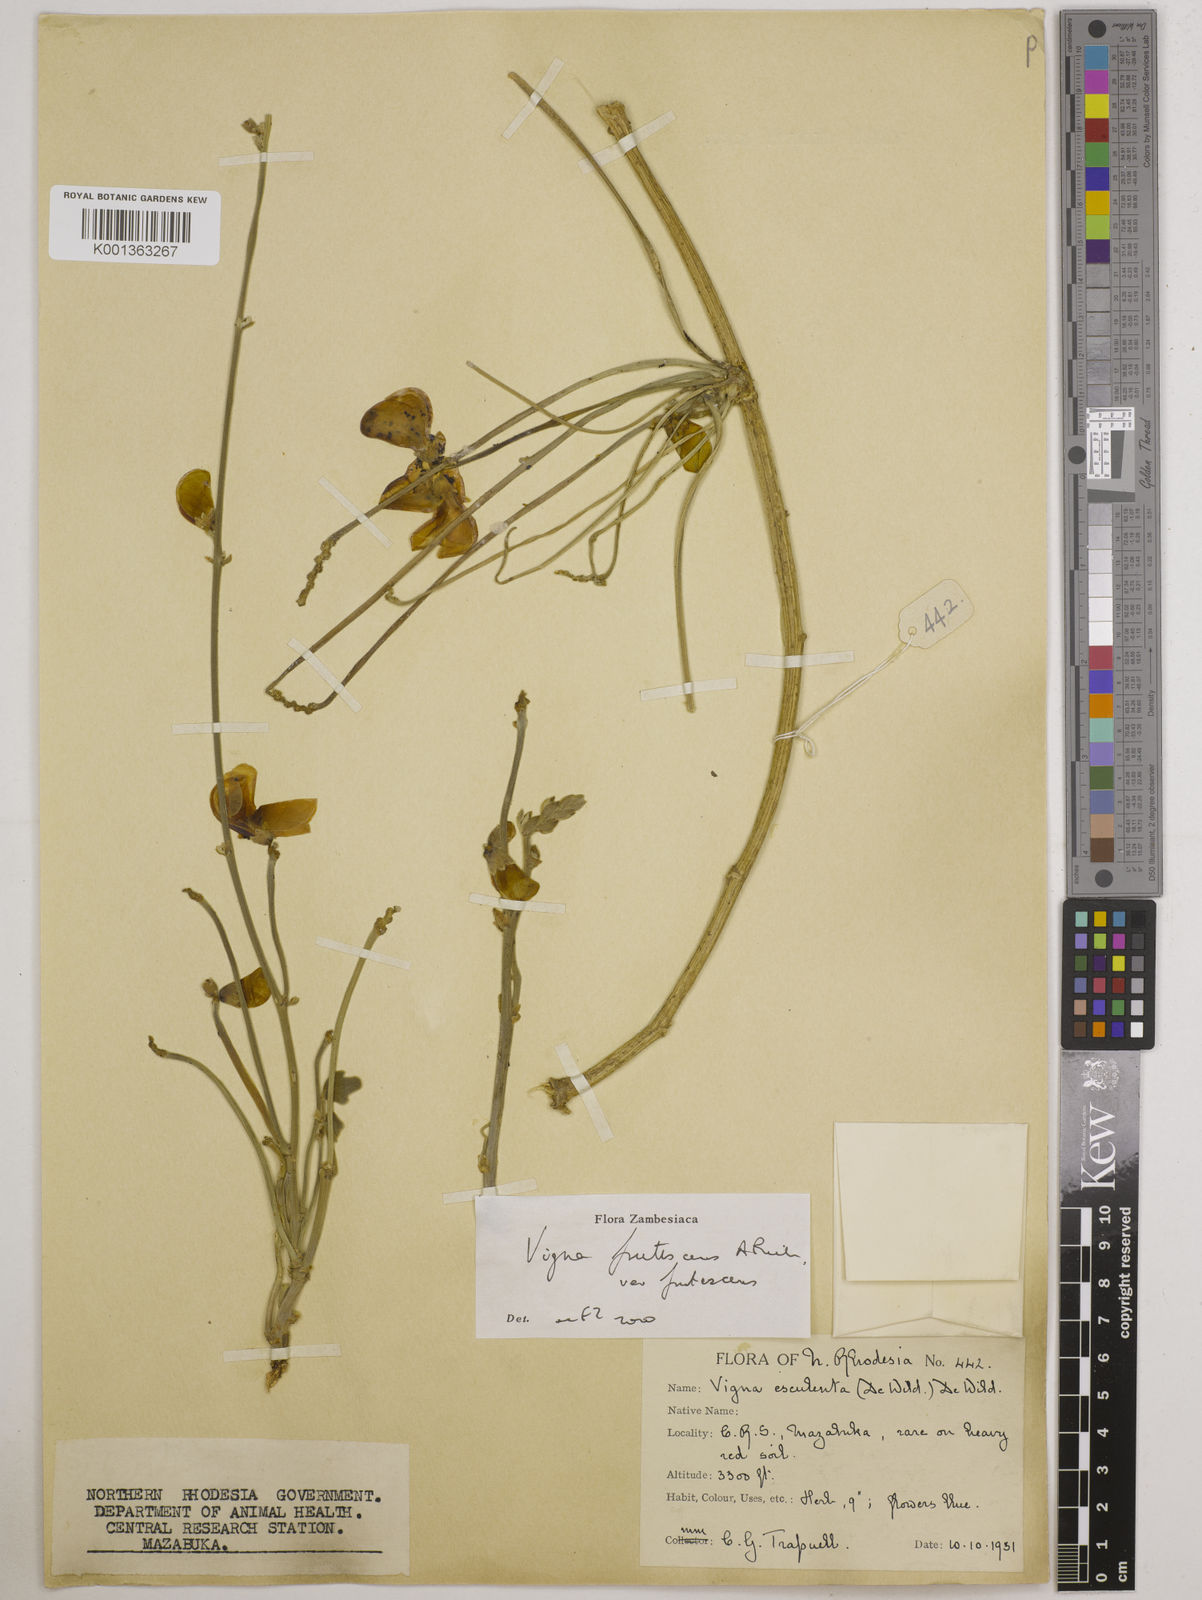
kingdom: Plantae
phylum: Tracheophyta
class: Magnoliopsida
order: Fabales
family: Fabaceae
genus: Vigna
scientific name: Vigna
